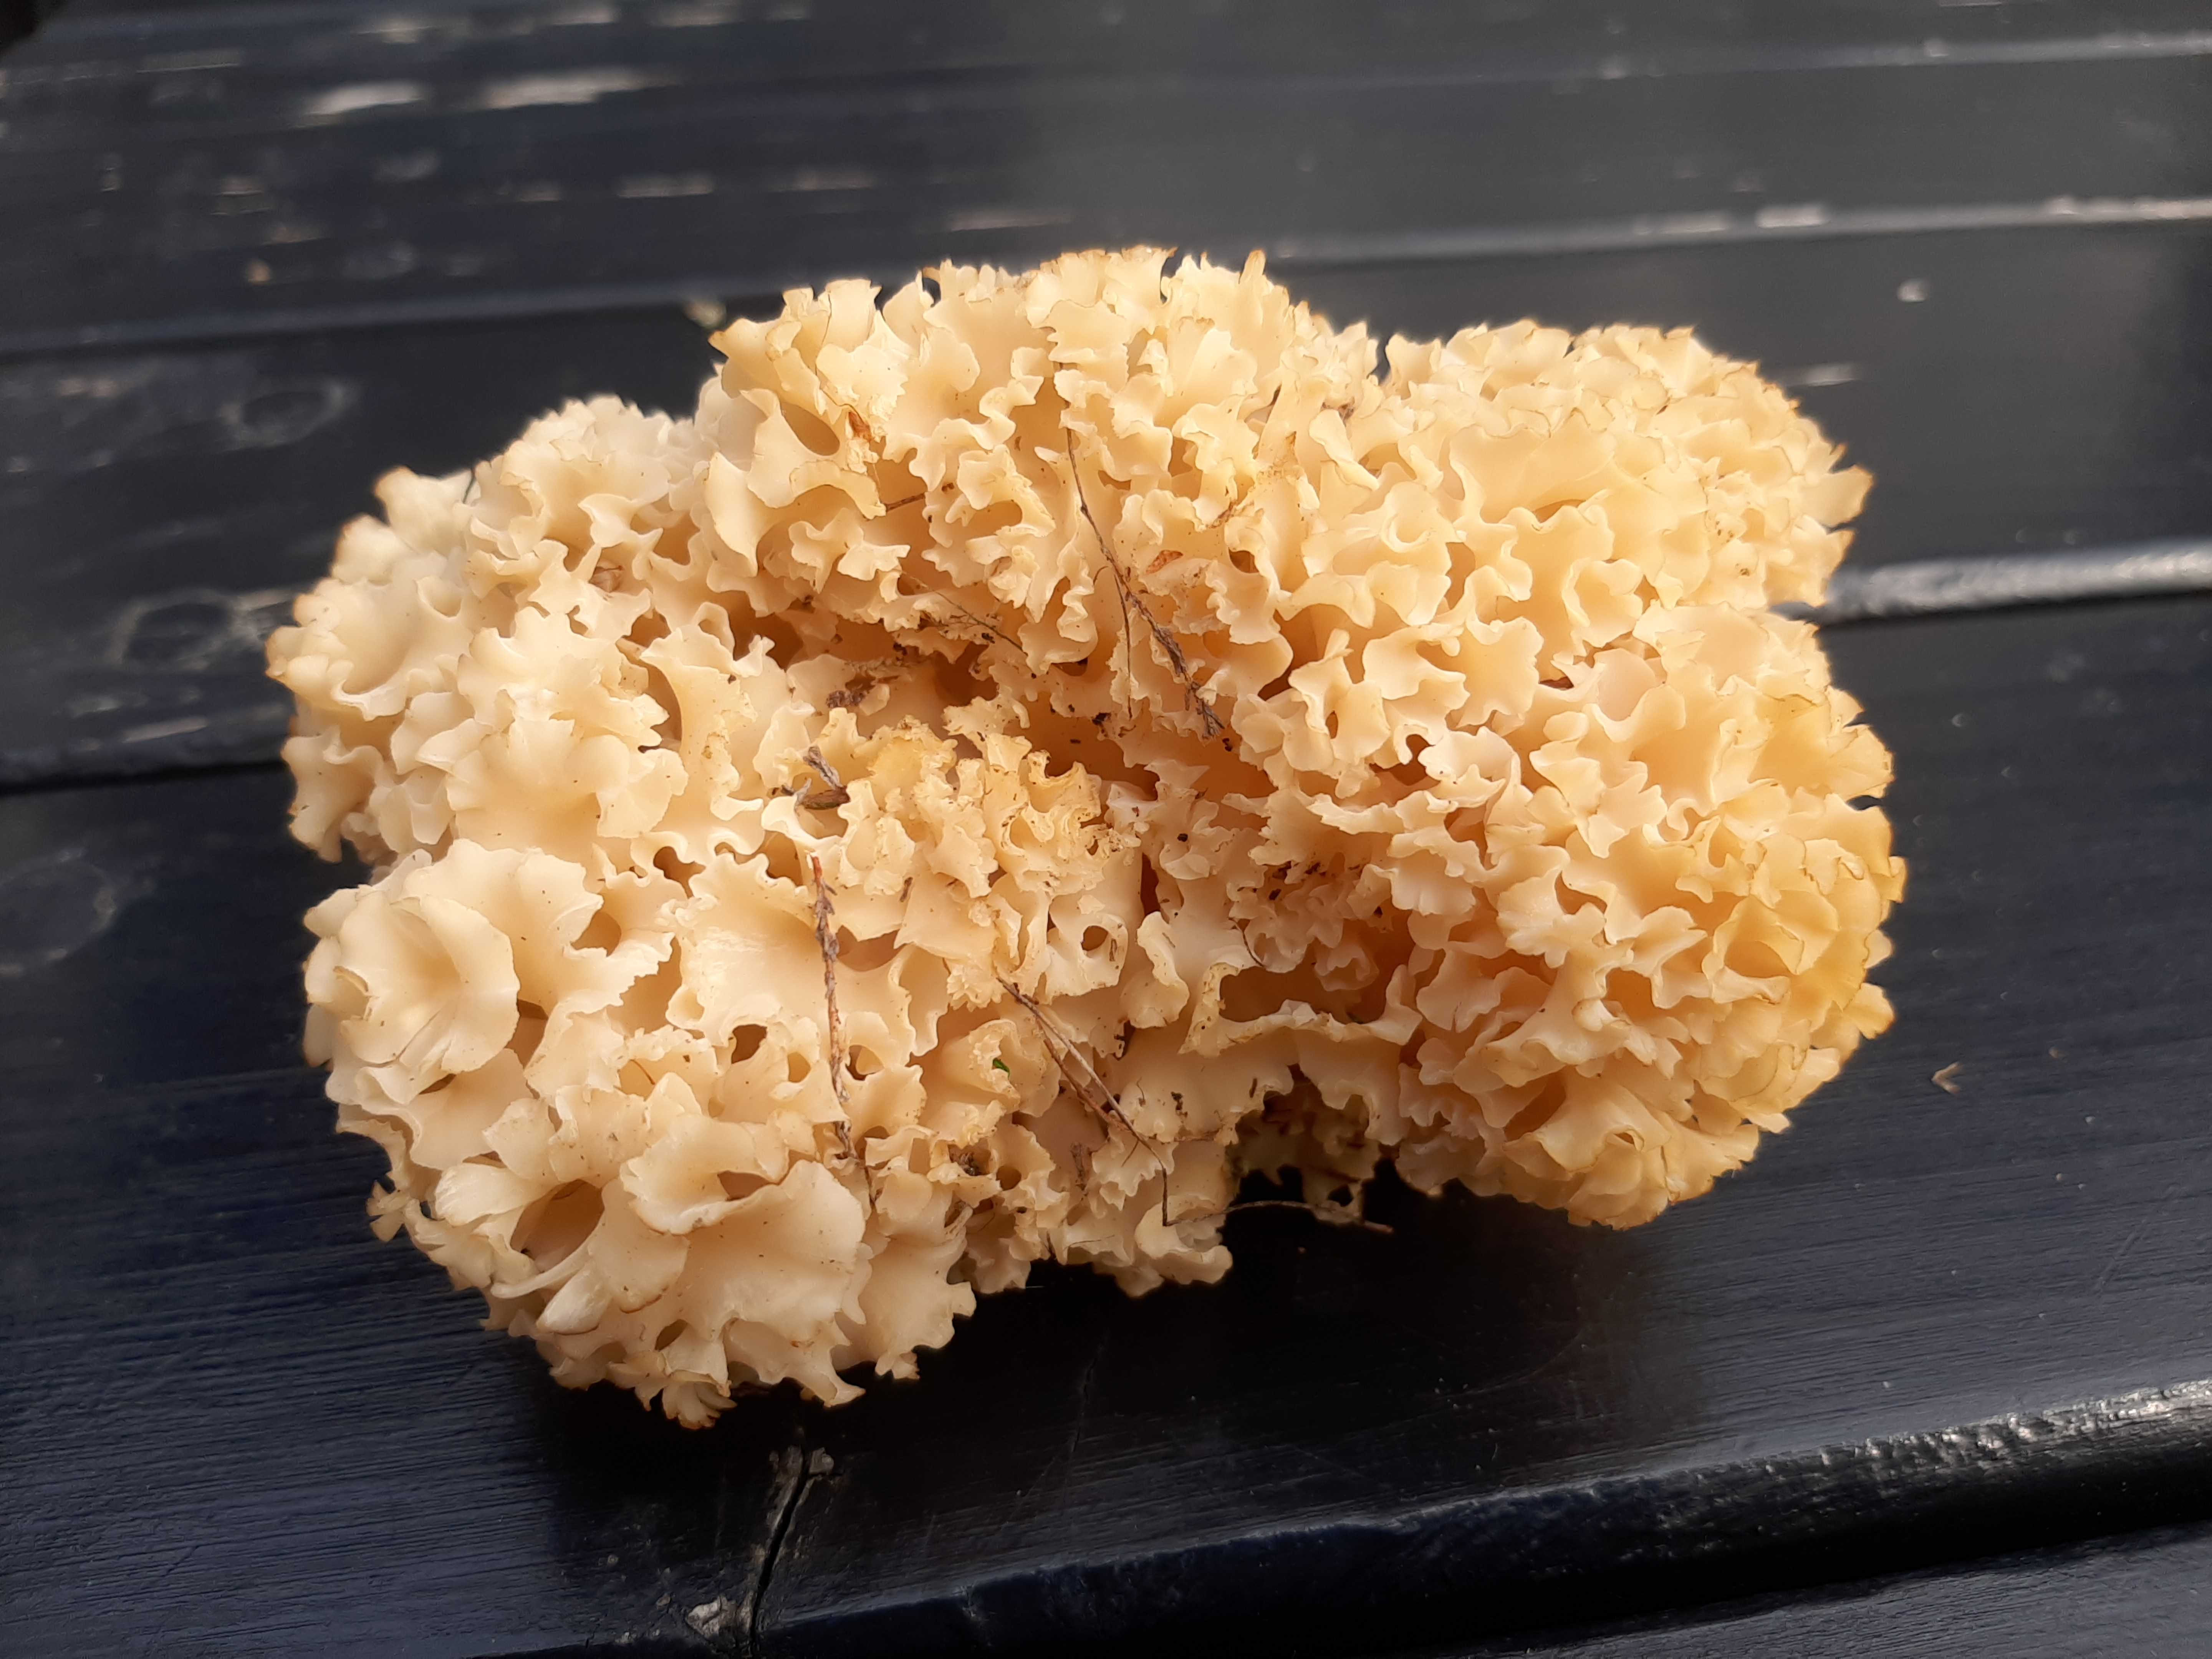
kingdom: Fungi
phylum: Basidiomycota
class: Agaricomycetes
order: Polyporales
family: Sparassidaceae
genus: Sparassis
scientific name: Sparassis crispa
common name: kruset blomkålssvamp
